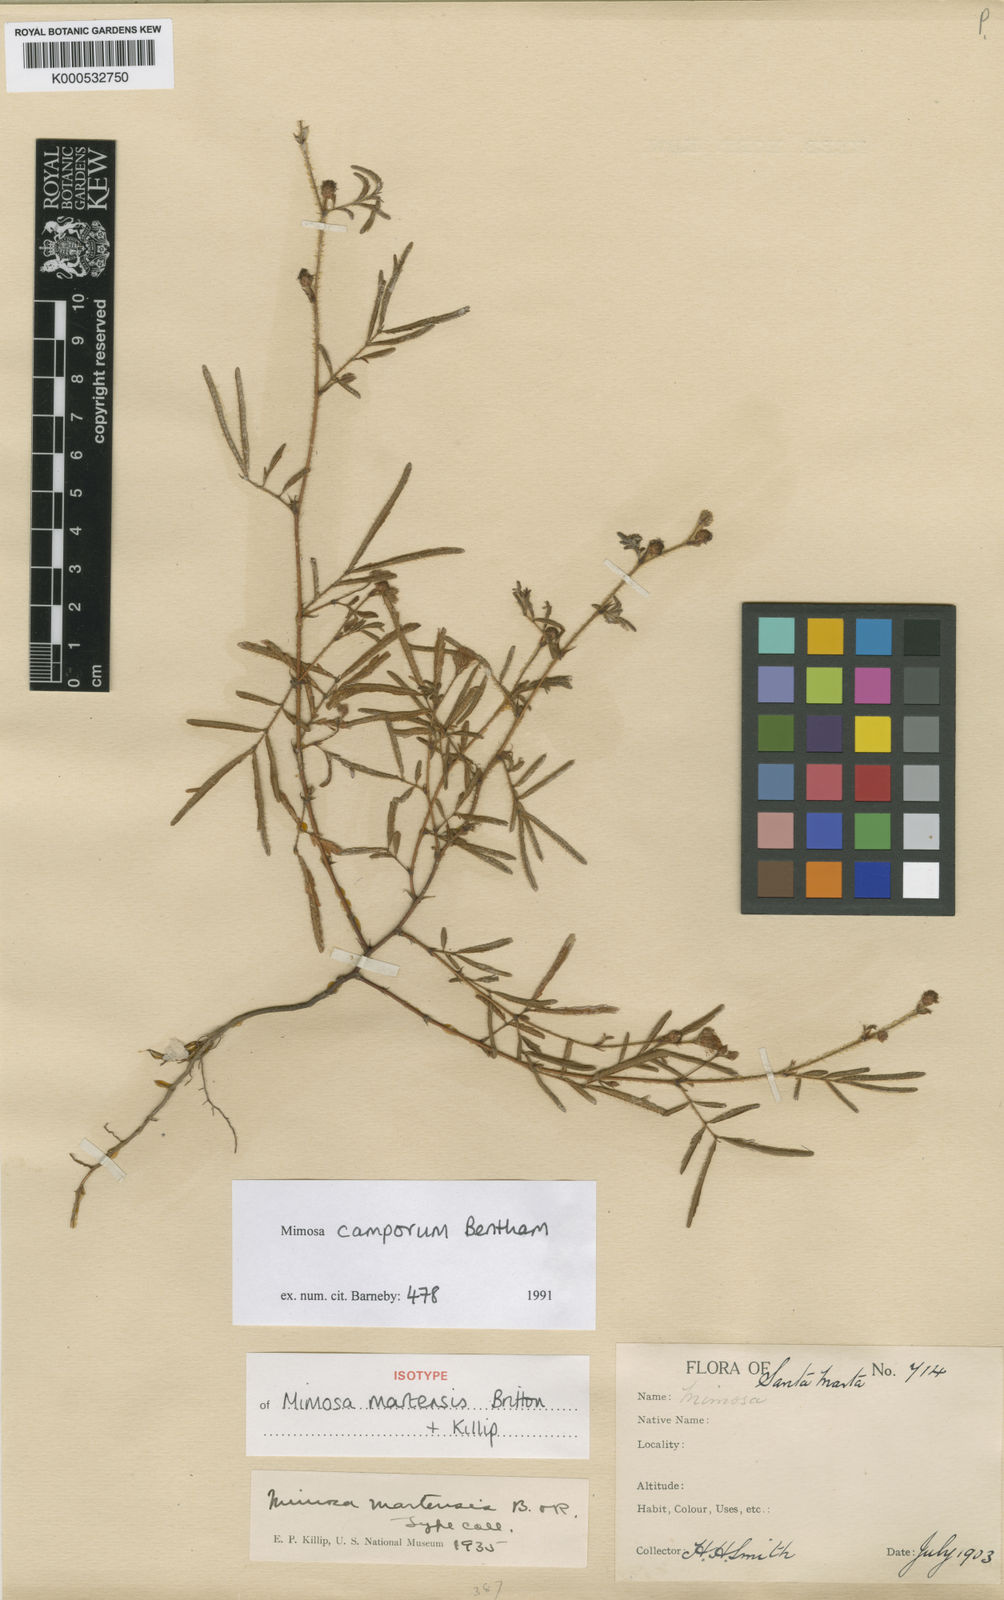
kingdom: Plantae
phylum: Tracheophyta
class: Magnoliopsida
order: Fabales
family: Fabaceae
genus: Mimosa
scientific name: Mimosa camporum
